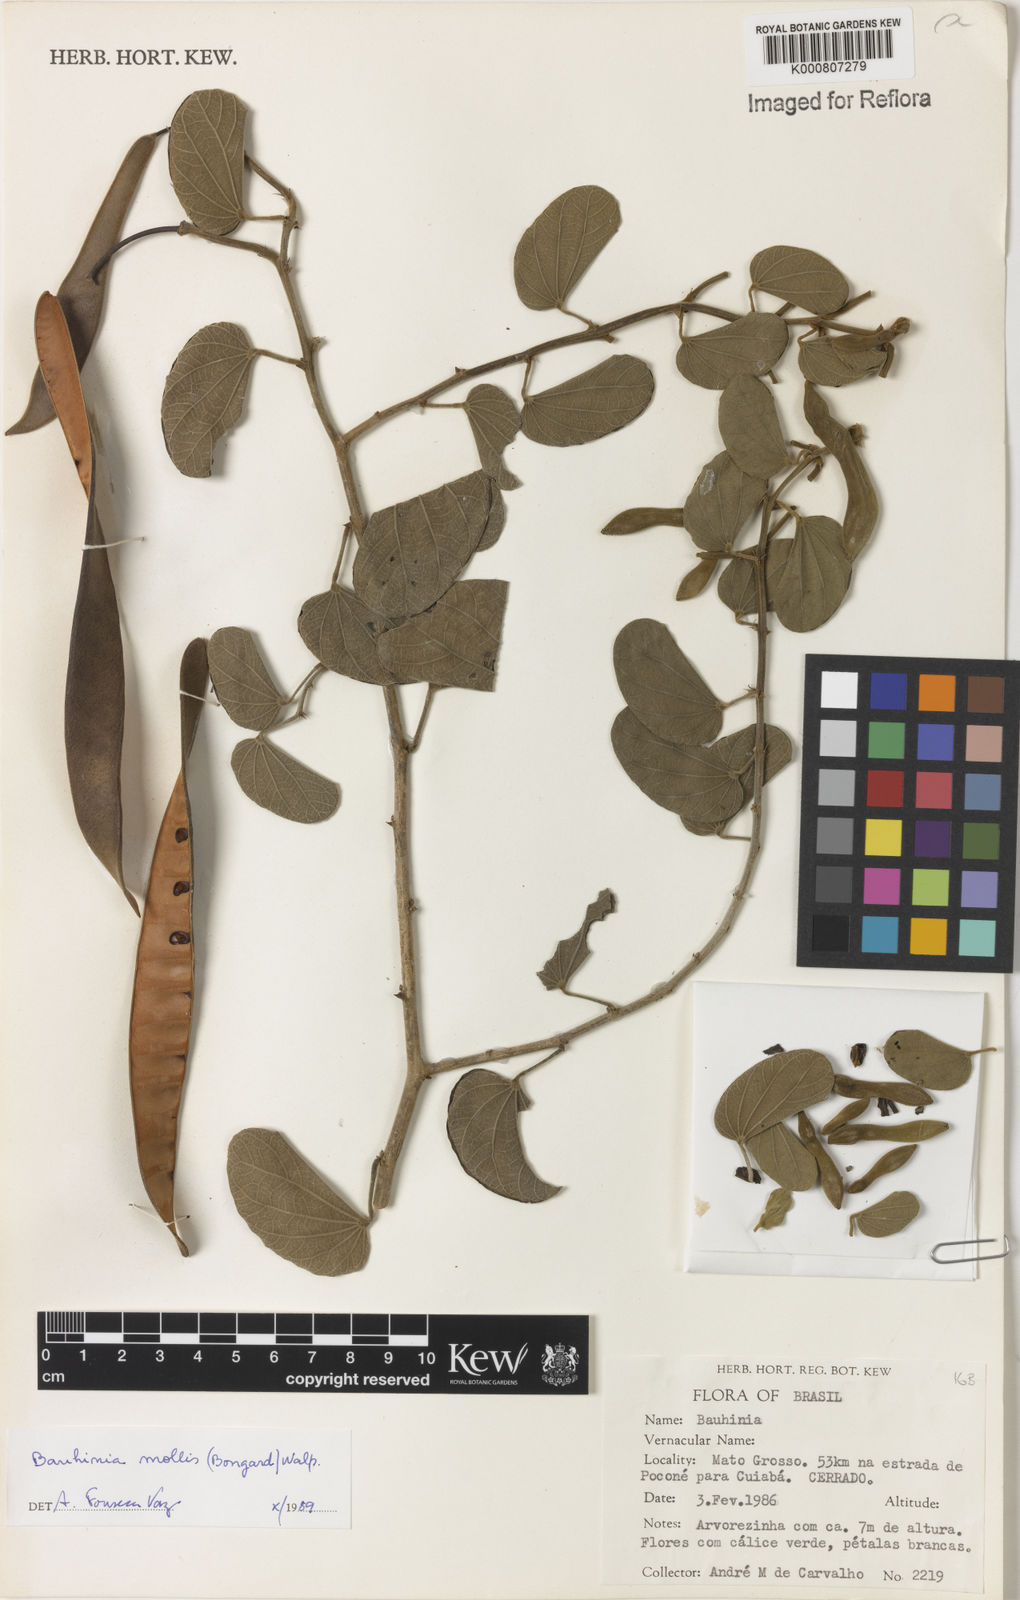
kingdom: Plantae
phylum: Tracheophyta
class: Magnoliopsida
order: Fabales
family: Fabaceae
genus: Bauhinia
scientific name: Bauhinia mollis
